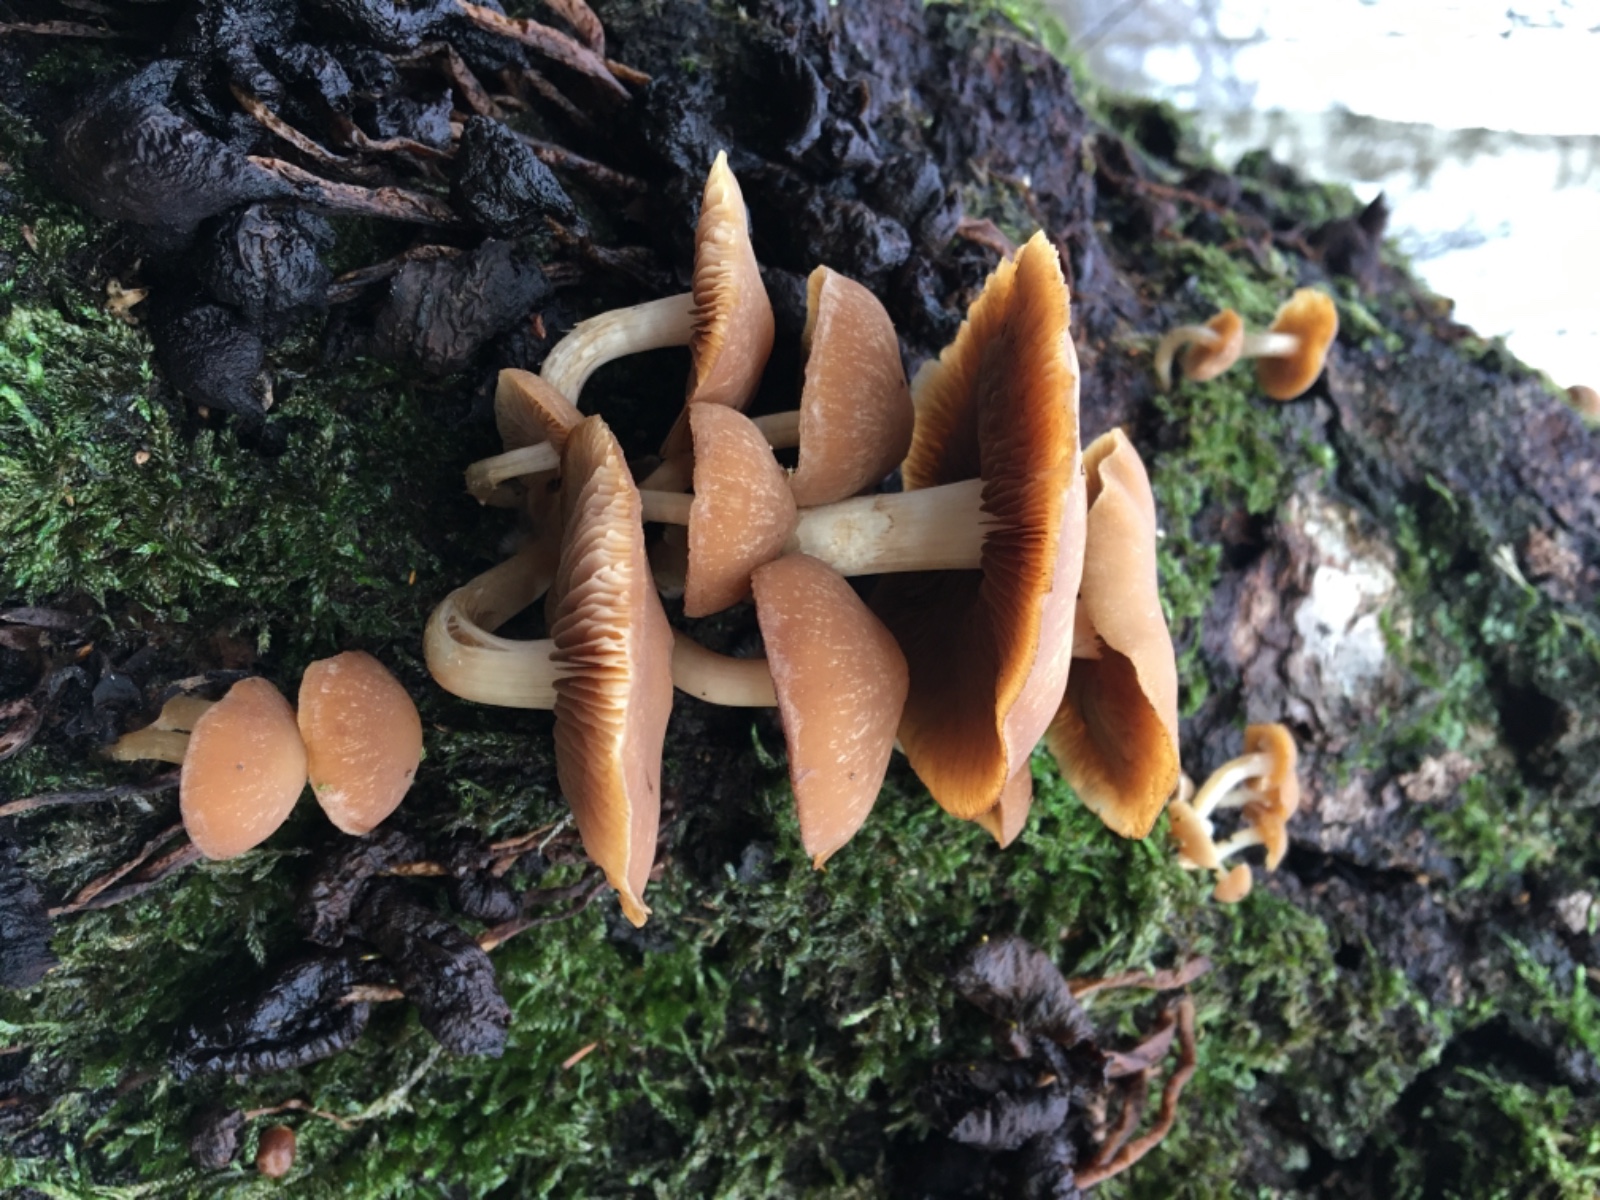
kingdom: Fungi
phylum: Basidiomycota
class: Agaricomycetes
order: Agaricales
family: Psathyrellaceae
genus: Psathyrella
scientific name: Psathyrella
